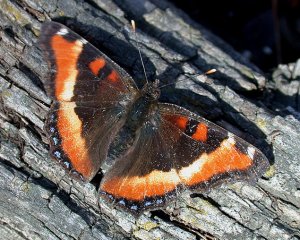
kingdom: Animalia
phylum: Arthropoda
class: Insecta
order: Lepidoptera
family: Nymphalidae
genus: Aglais
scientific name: Aglais milberti
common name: Milbert's Tortoiseshell
